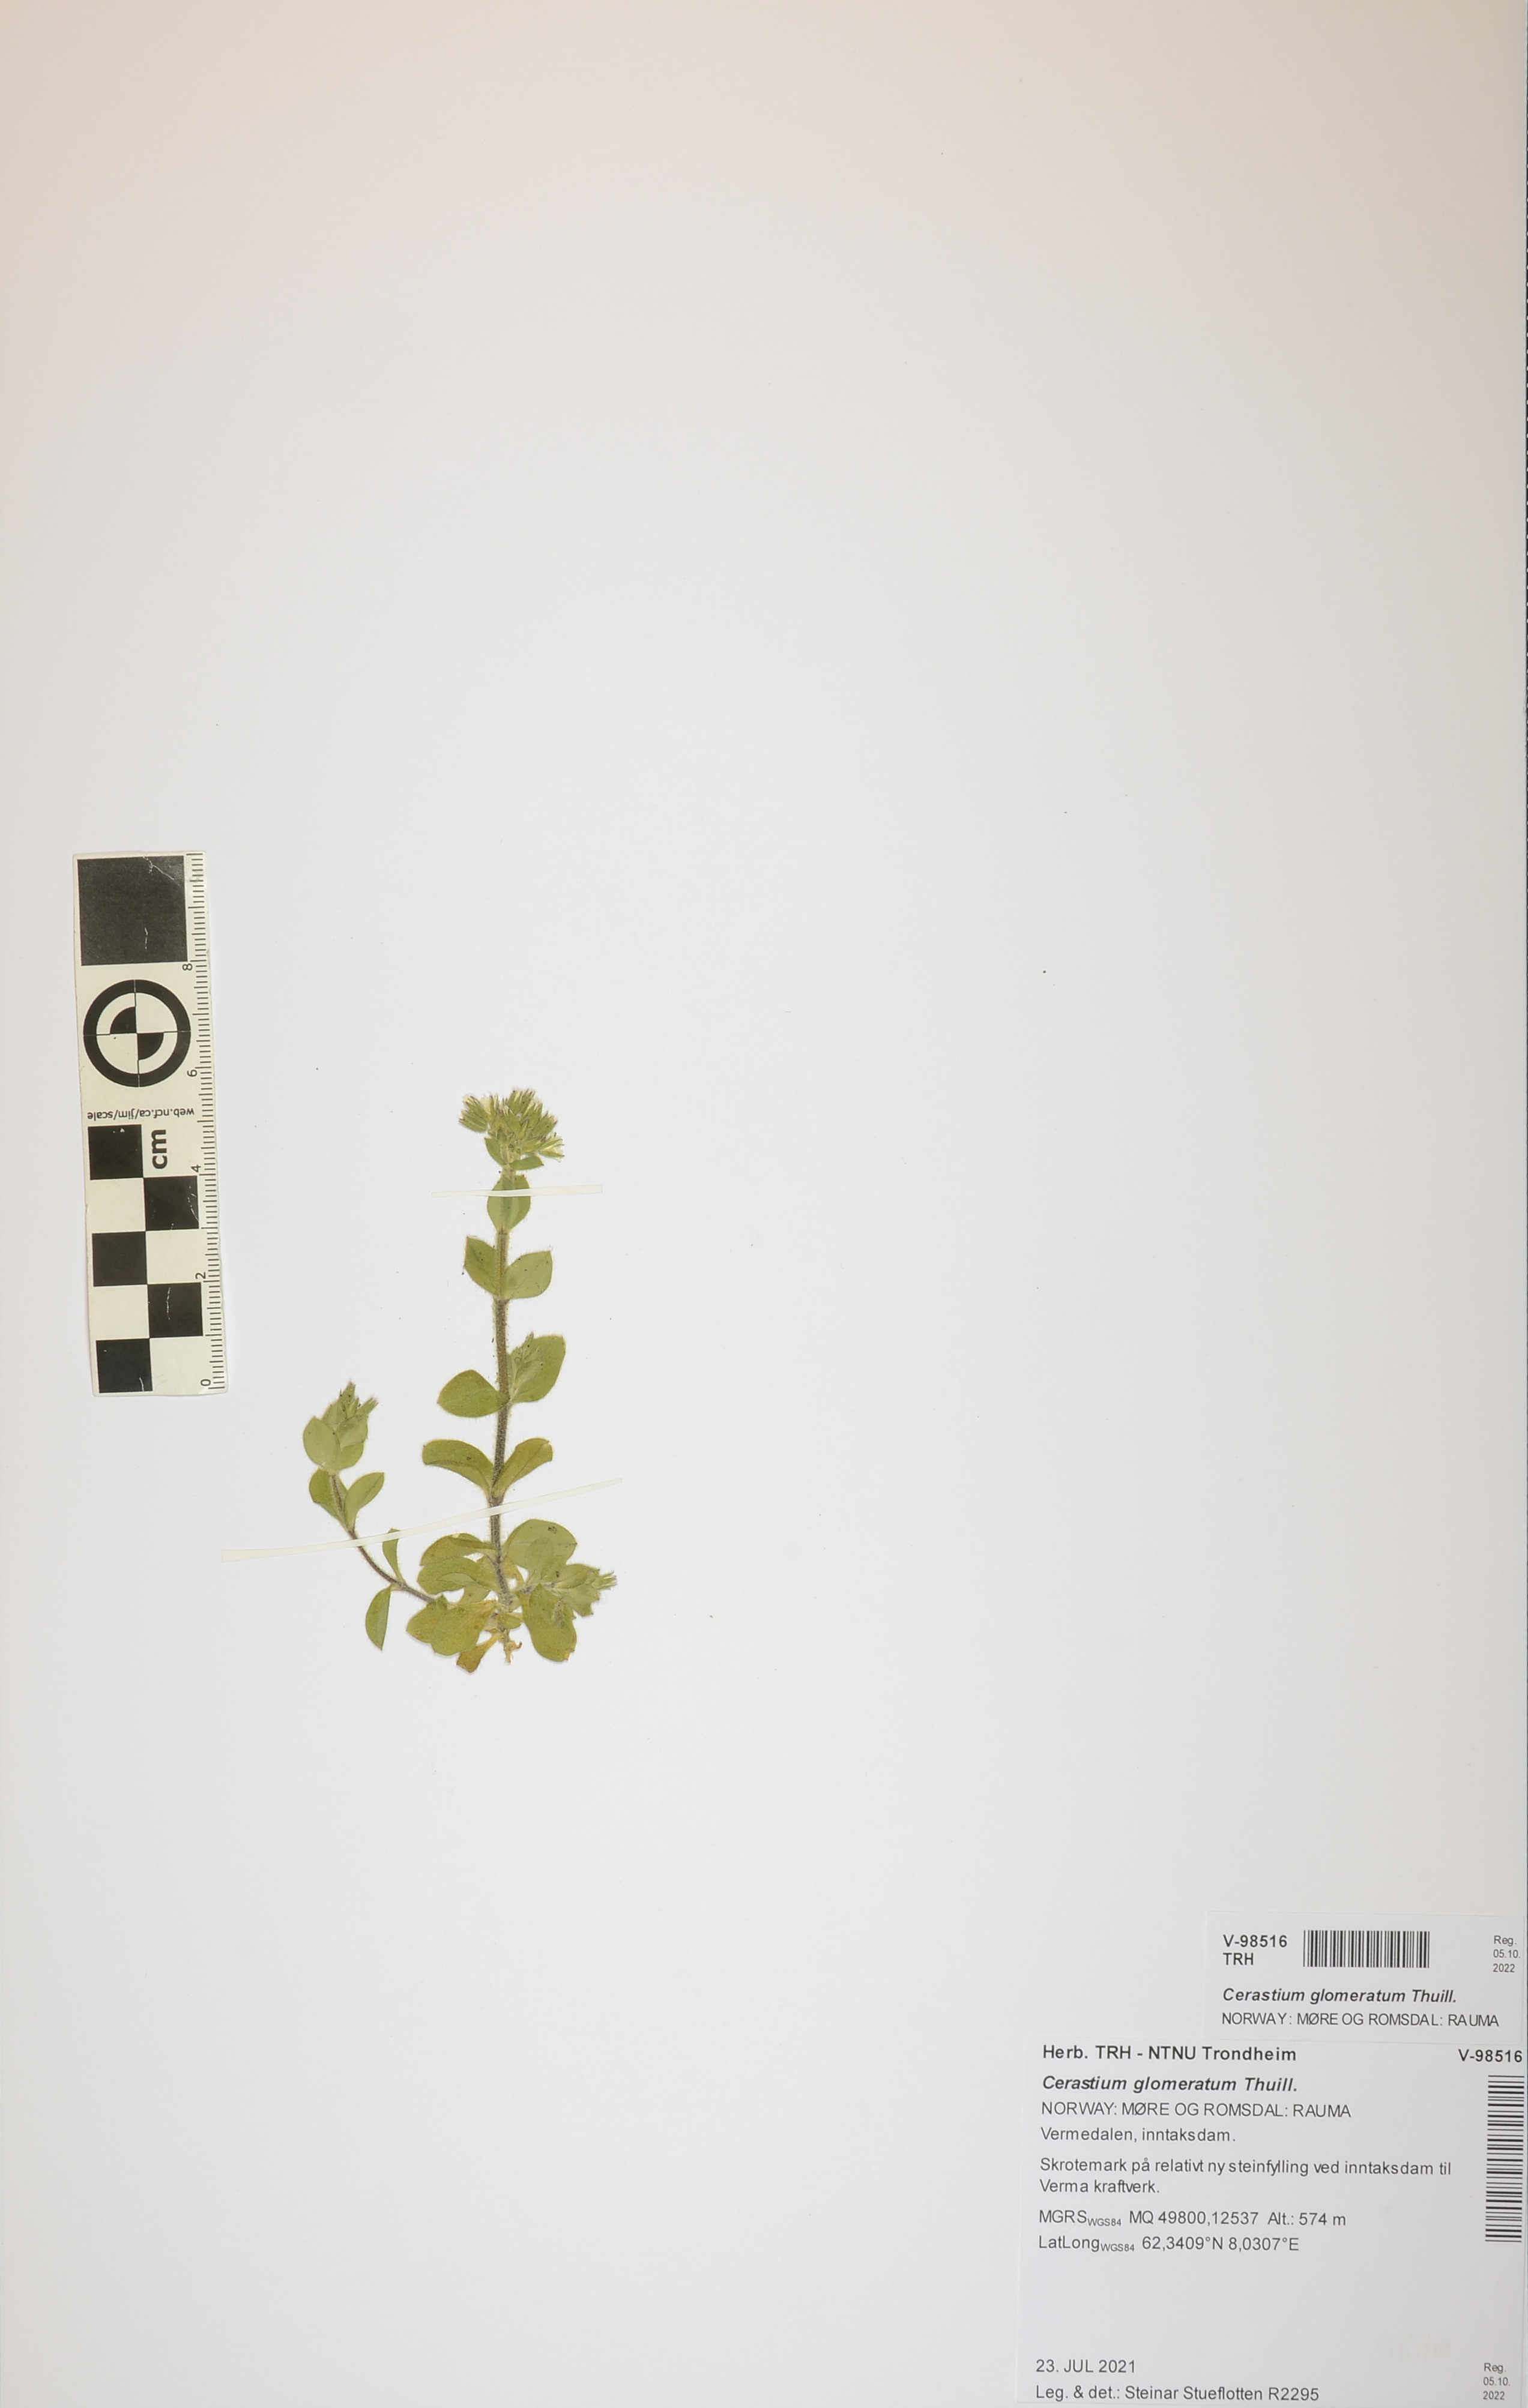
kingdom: Plantae
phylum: Tracheophyta
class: Magnoliopsida
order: Caryophyllales
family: Caryophyllaceae
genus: Cerastium
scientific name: Cerastium glomeratum
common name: Sticky chickweed
